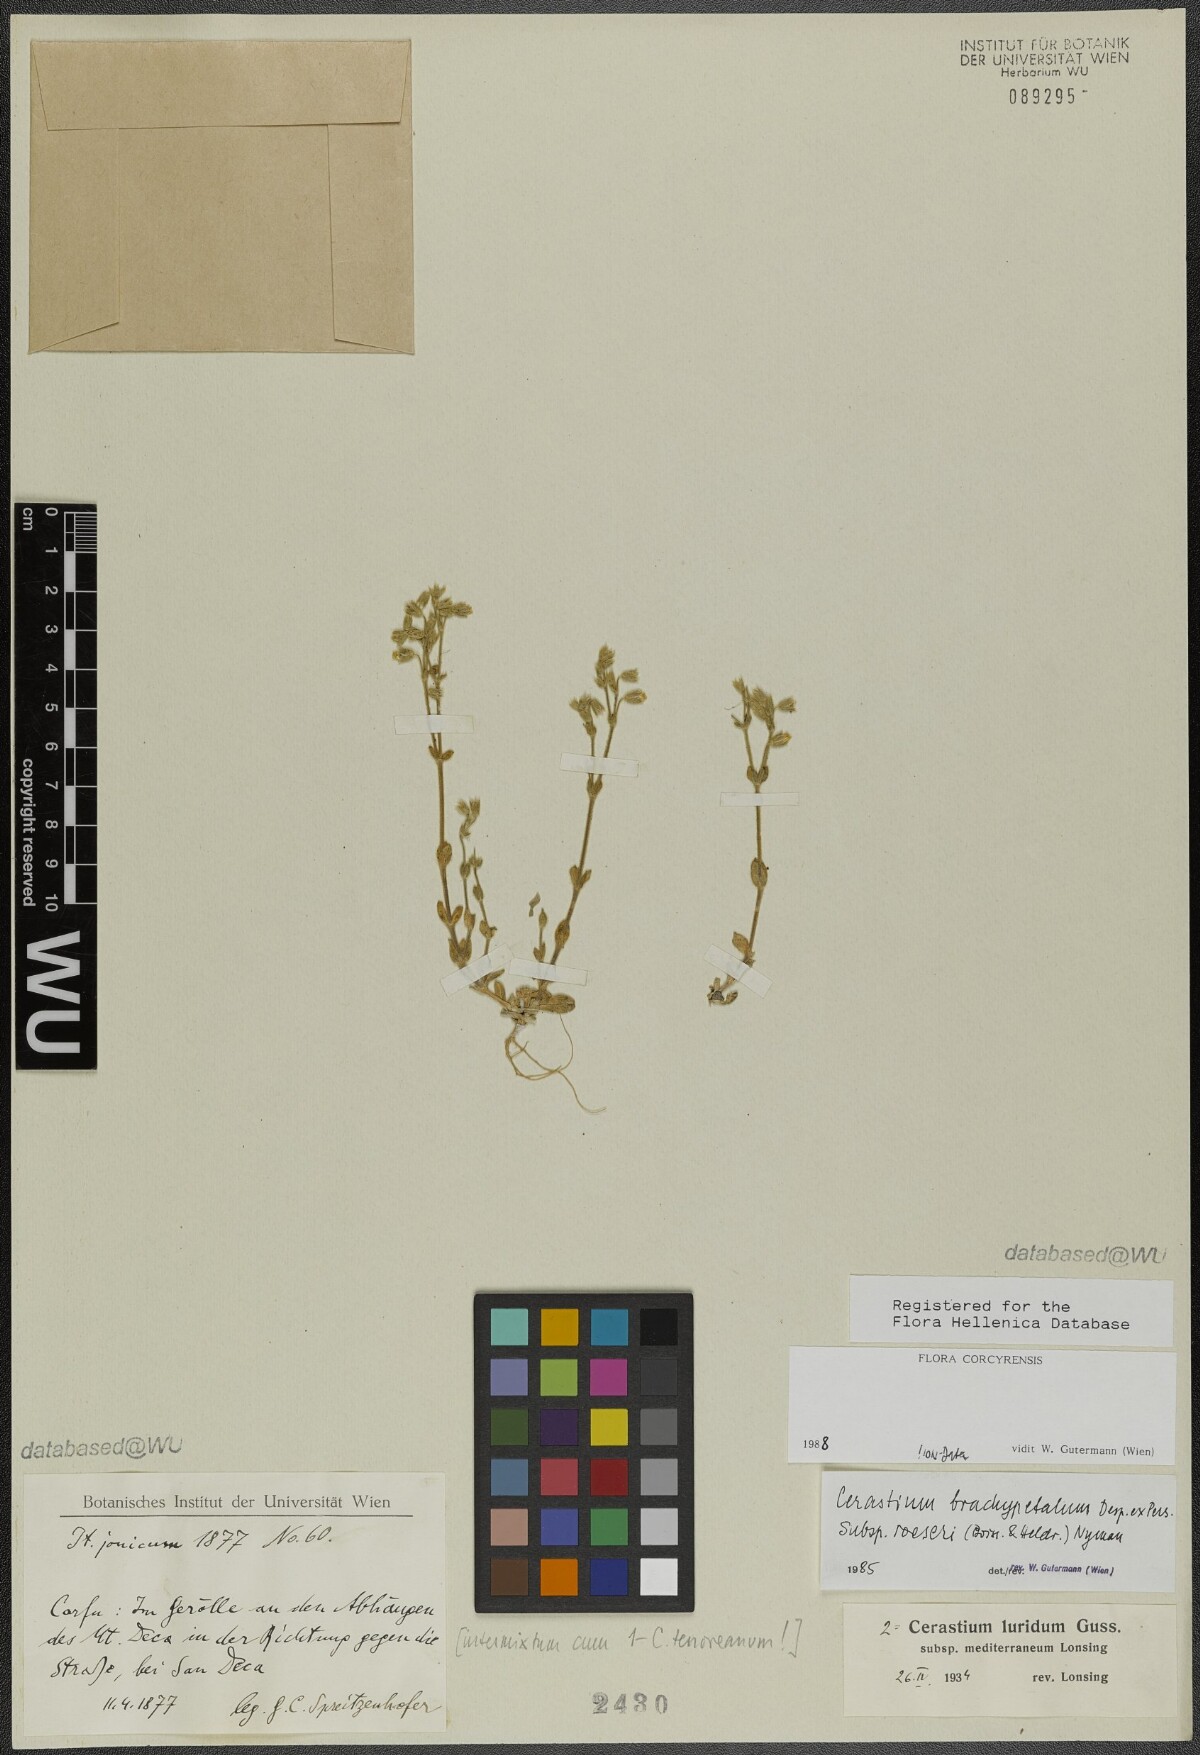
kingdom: Plantae
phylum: Tracheophyta
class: Magnoliopsida
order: Caryophyllales
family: Caryophyllaceae
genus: Cerastium
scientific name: Cerastium brachypetalum
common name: Grey mouse-ear
